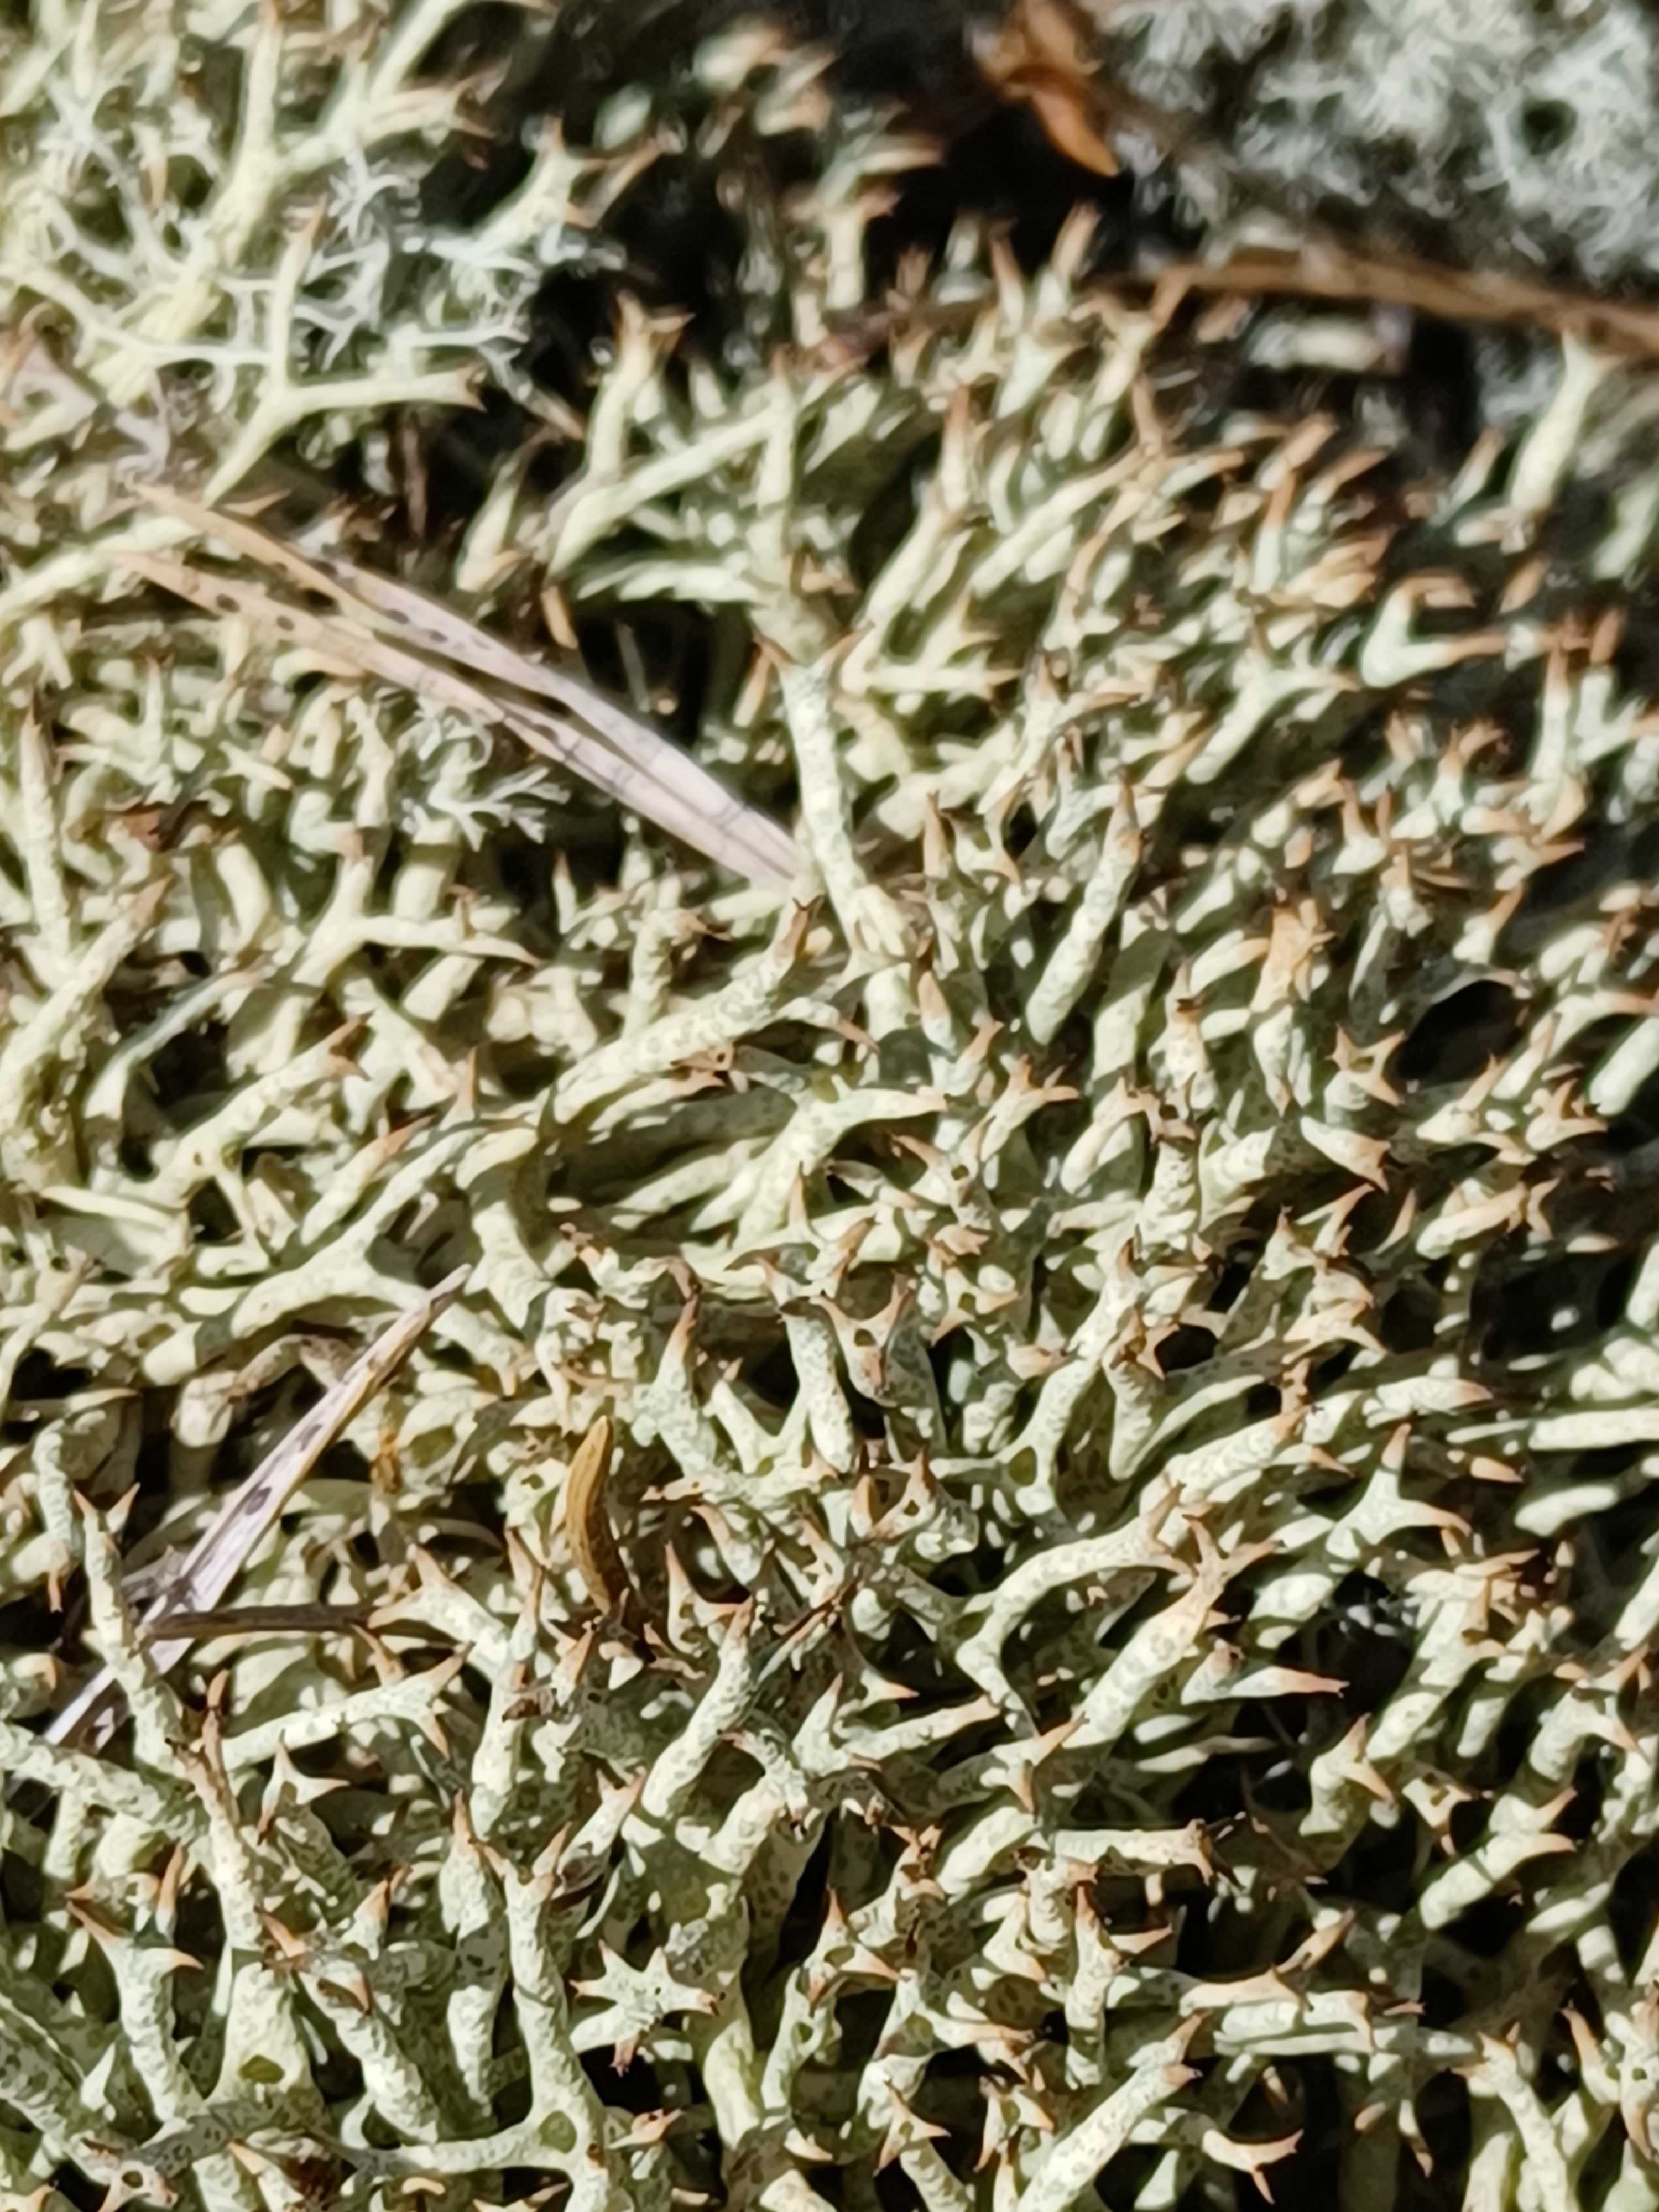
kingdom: Fungi
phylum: Ascomycota
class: Lecanoromycetes
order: Lecanorales
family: Cladoniaceae
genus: Cladonia
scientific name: Cladonia uncialis
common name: pigget bægerlav
